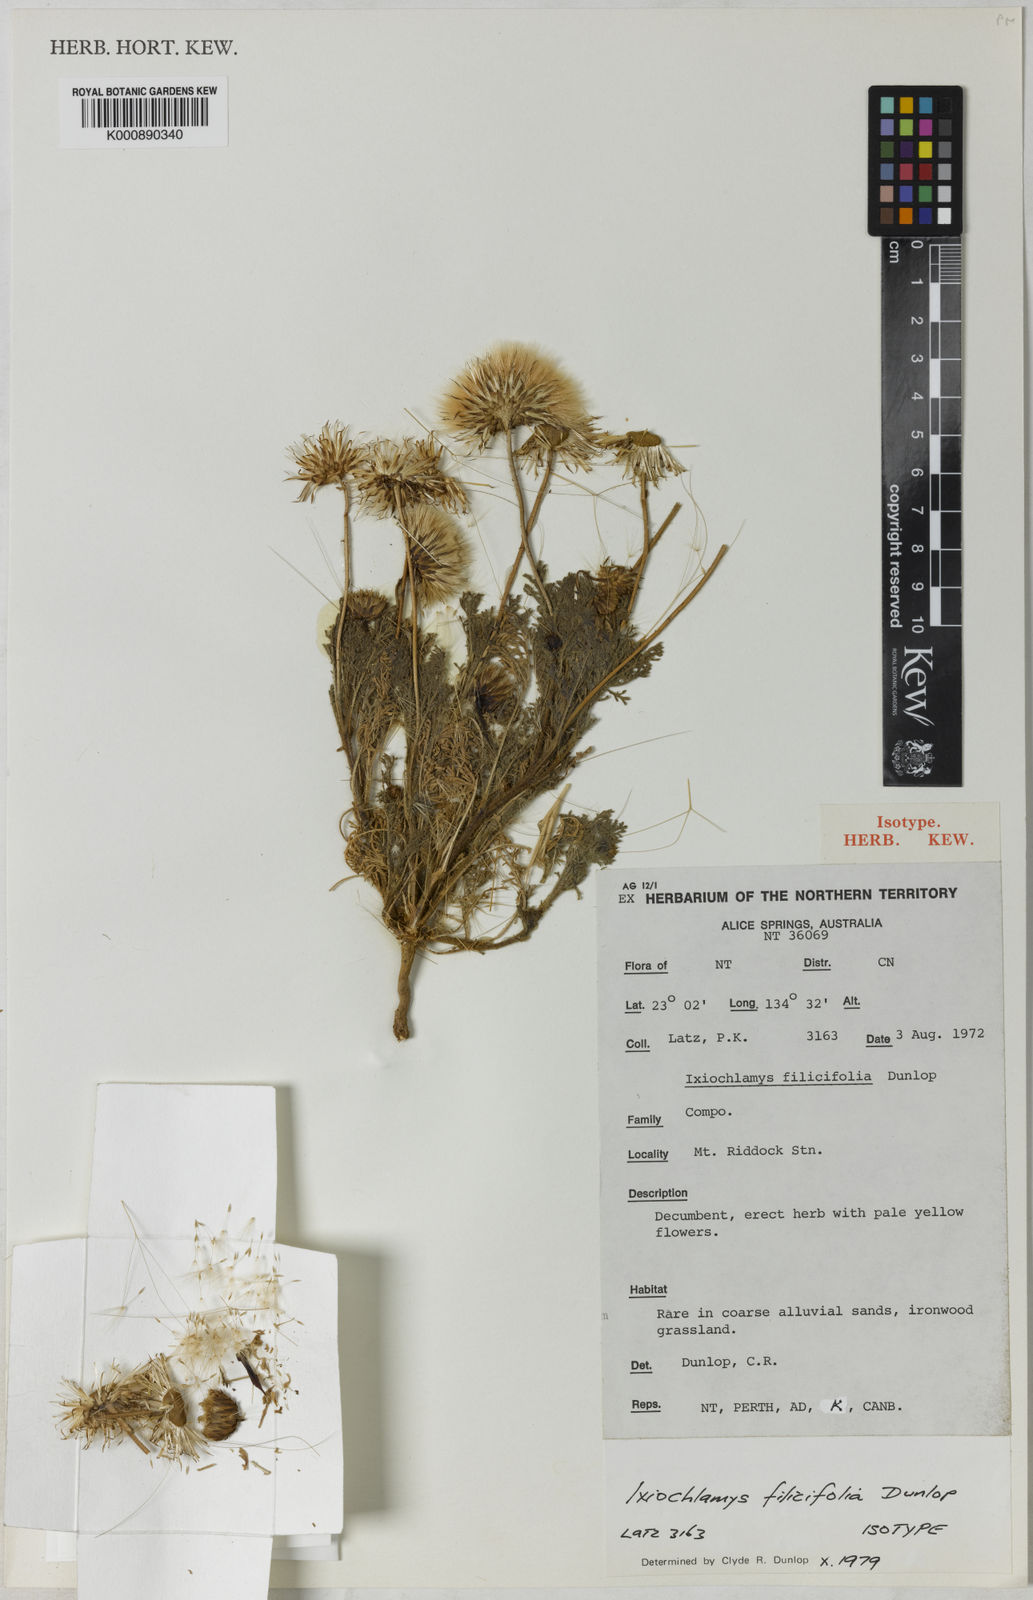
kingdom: Plantae
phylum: Tracheophyta
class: Magnoliopsida
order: Asterales
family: Asteraceae
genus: Ixiochlamys
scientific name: Ixiochlamys filicifolia
